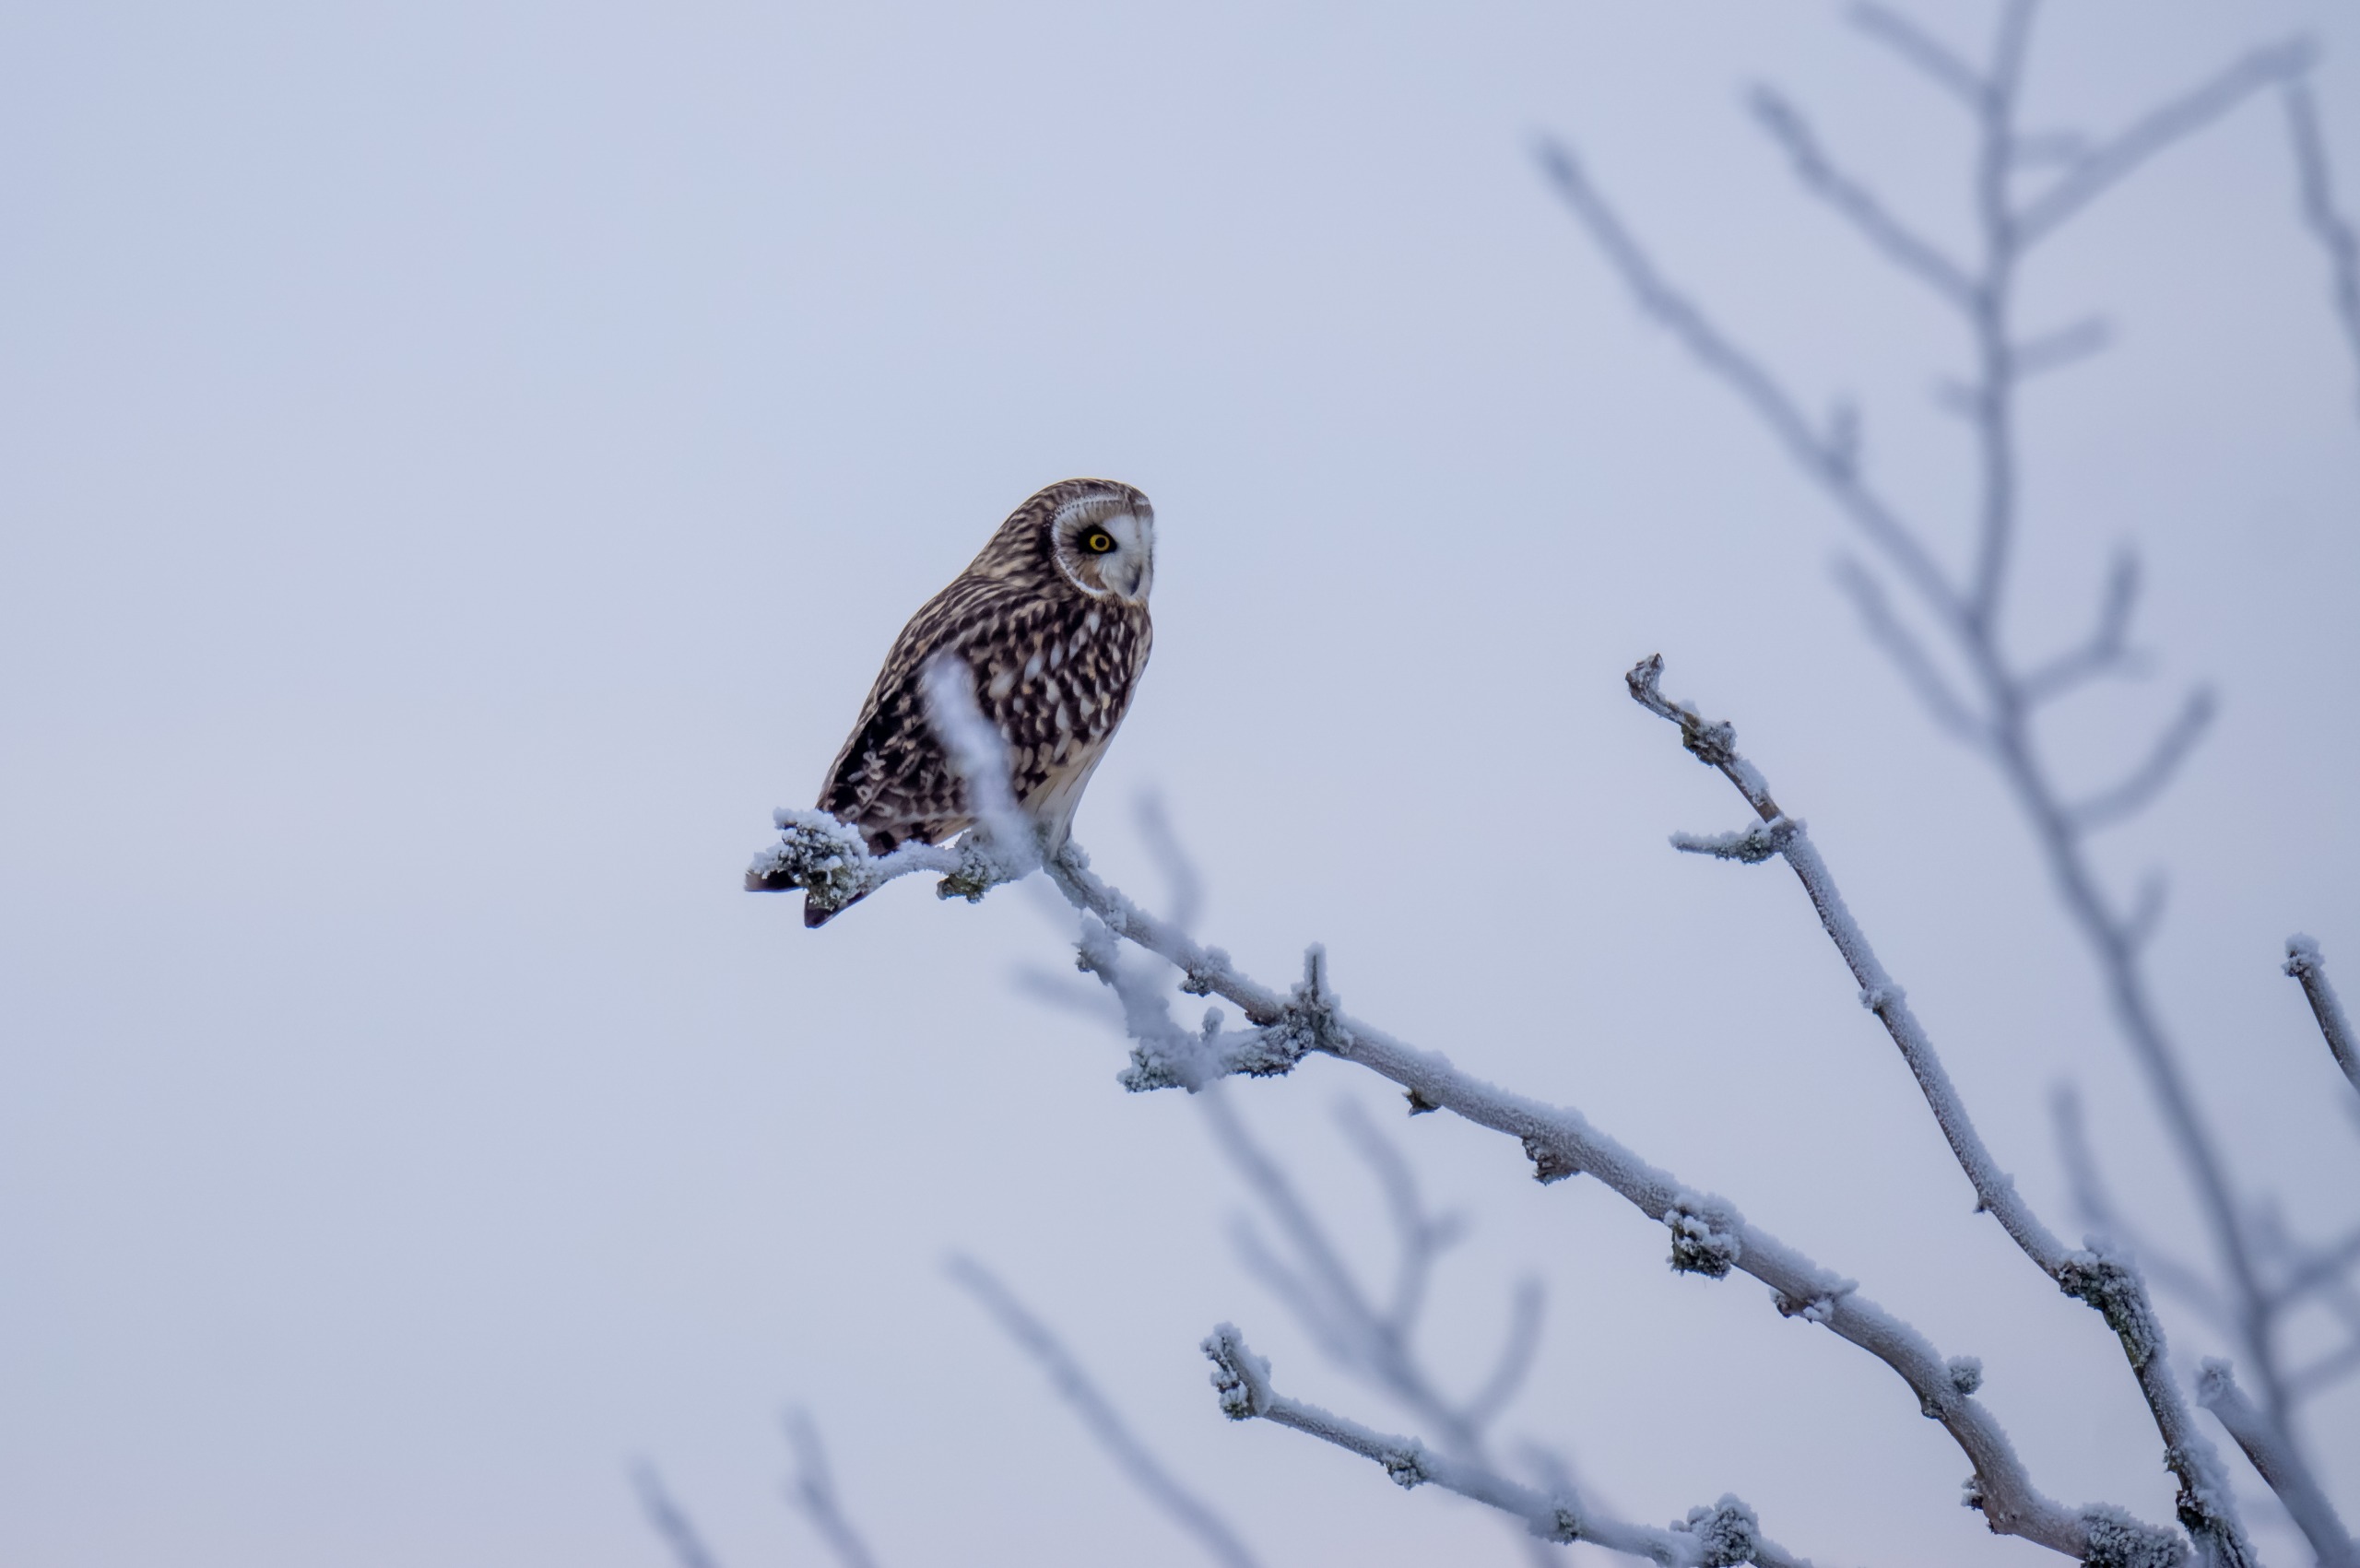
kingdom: Animalia
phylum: Chordata
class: Aves
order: Strigiformes
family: Strigidae
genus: Asio
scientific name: Asio flammeus
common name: Mosehornugle
